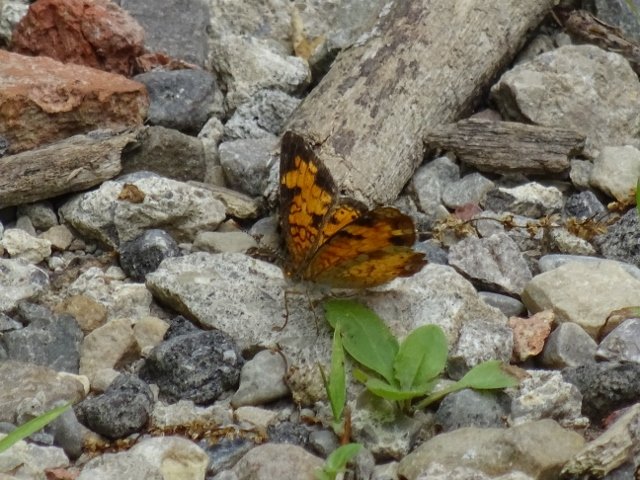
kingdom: Animalia
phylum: Arthropoda
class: Insecta
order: Lepidoptera
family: Nymphalidae
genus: Phyciodes
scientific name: Phyciodes tharos
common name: Northern Crescent
